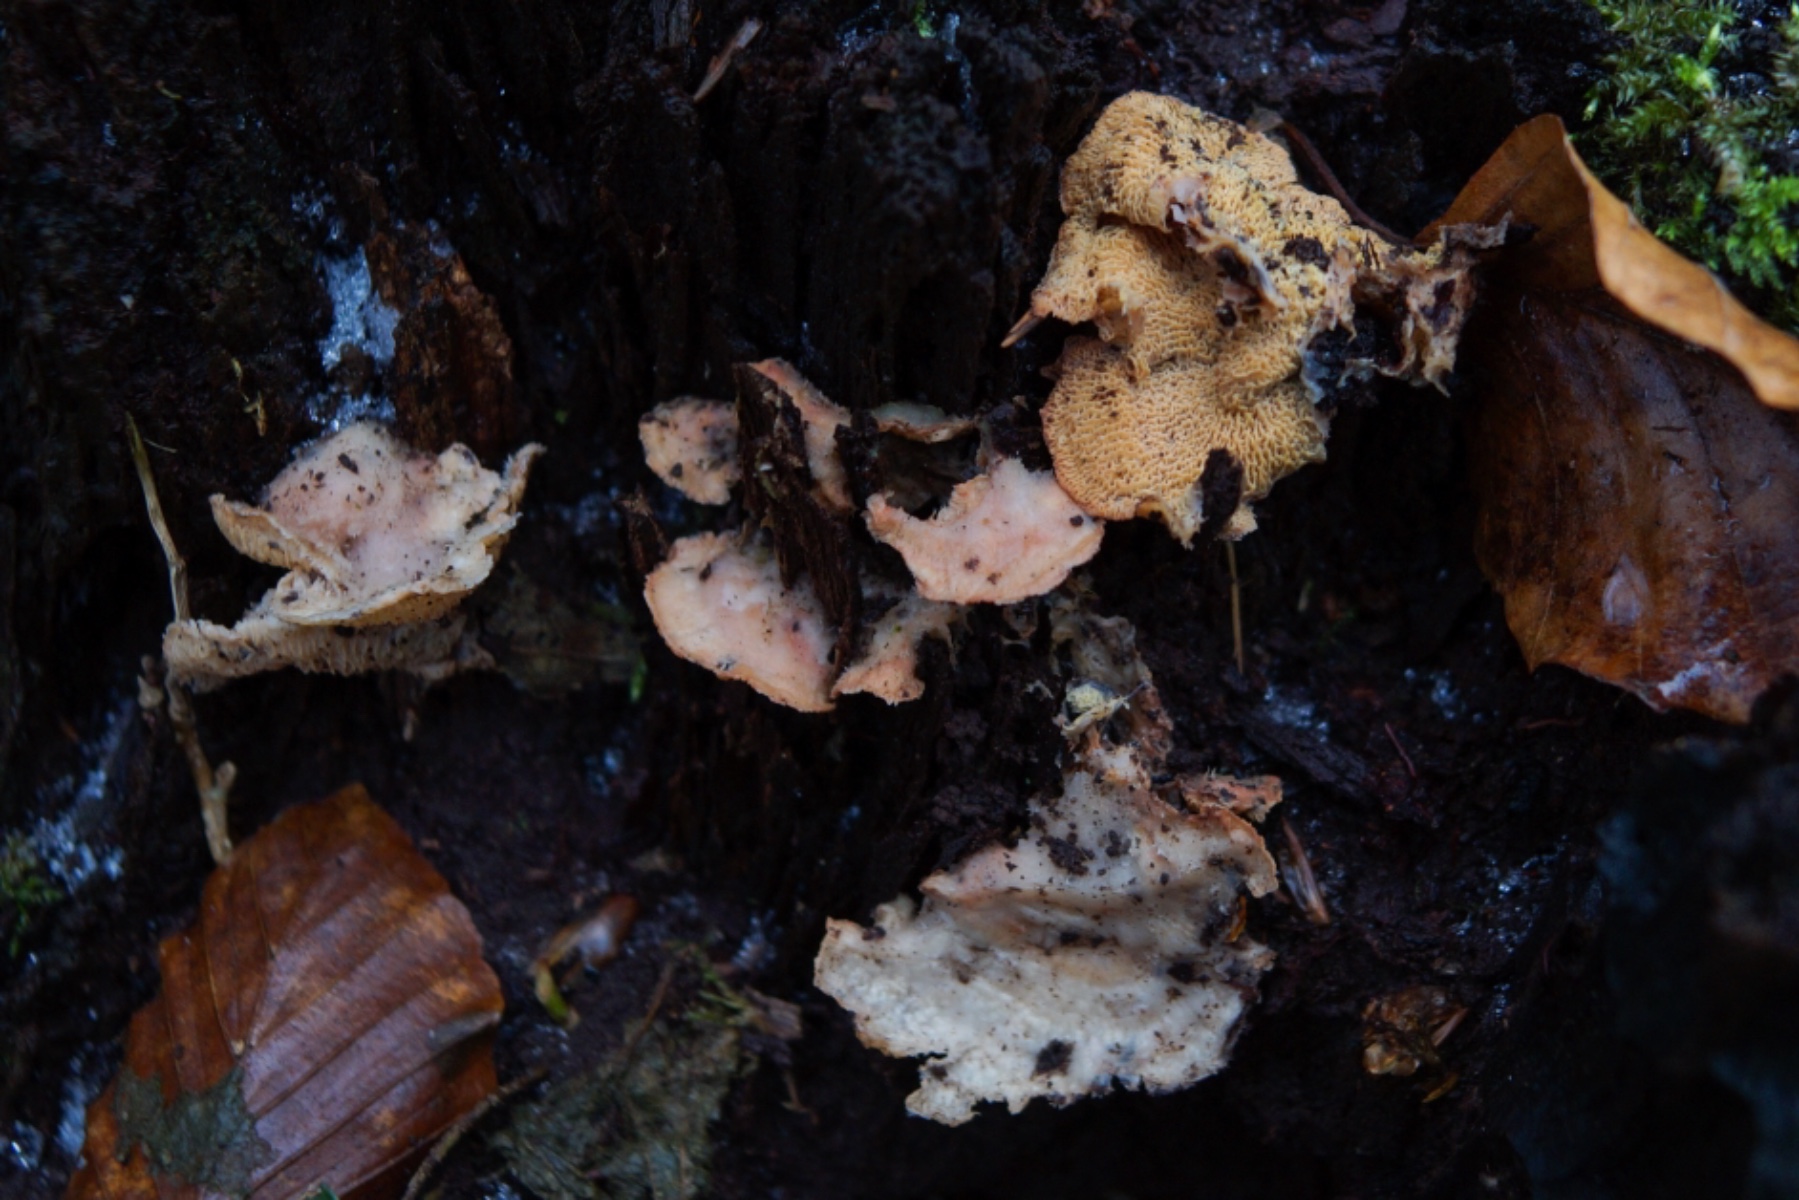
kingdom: Fungi
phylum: Basidiomycota
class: Agaricomycetes
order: Polyporales
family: Meruliaceae
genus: Phlebia
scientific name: Phlebia tremellosa
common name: bævrende åresvamp
